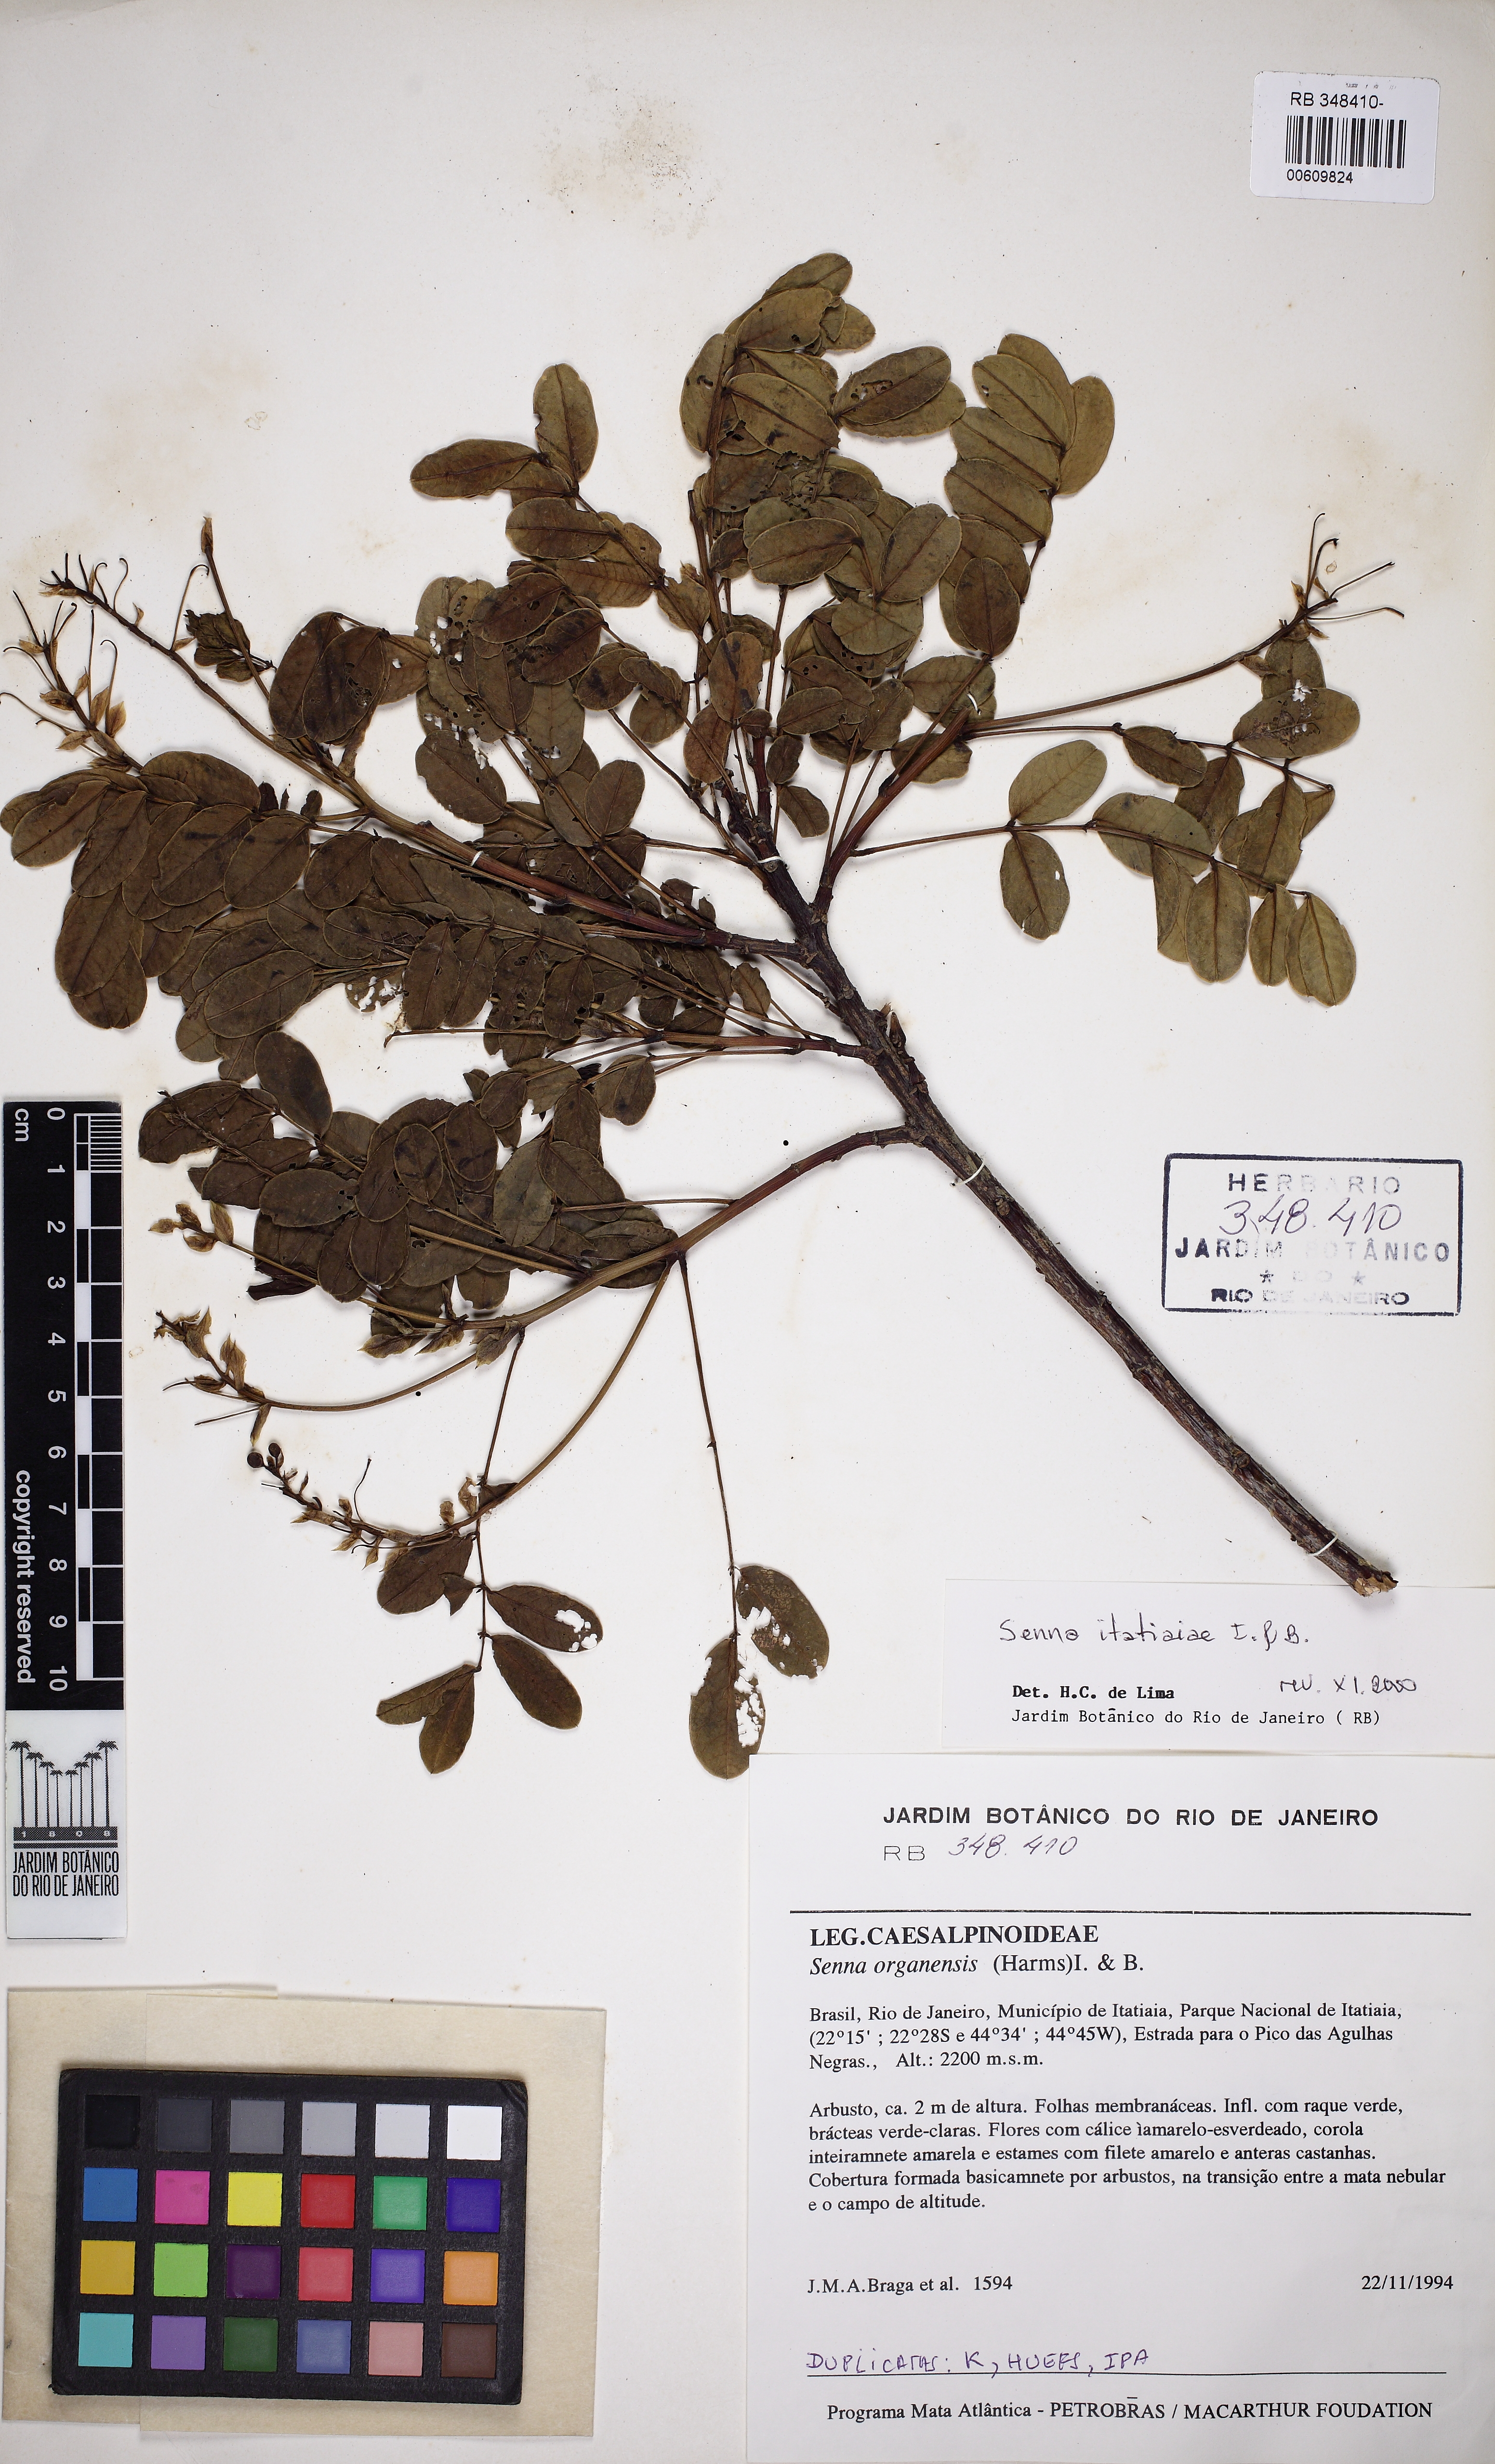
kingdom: Plantae
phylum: Tracheophyta
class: Magnoliopsida
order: Fabales
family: Fabaceae
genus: Senna
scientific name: Senna itatiaiae
